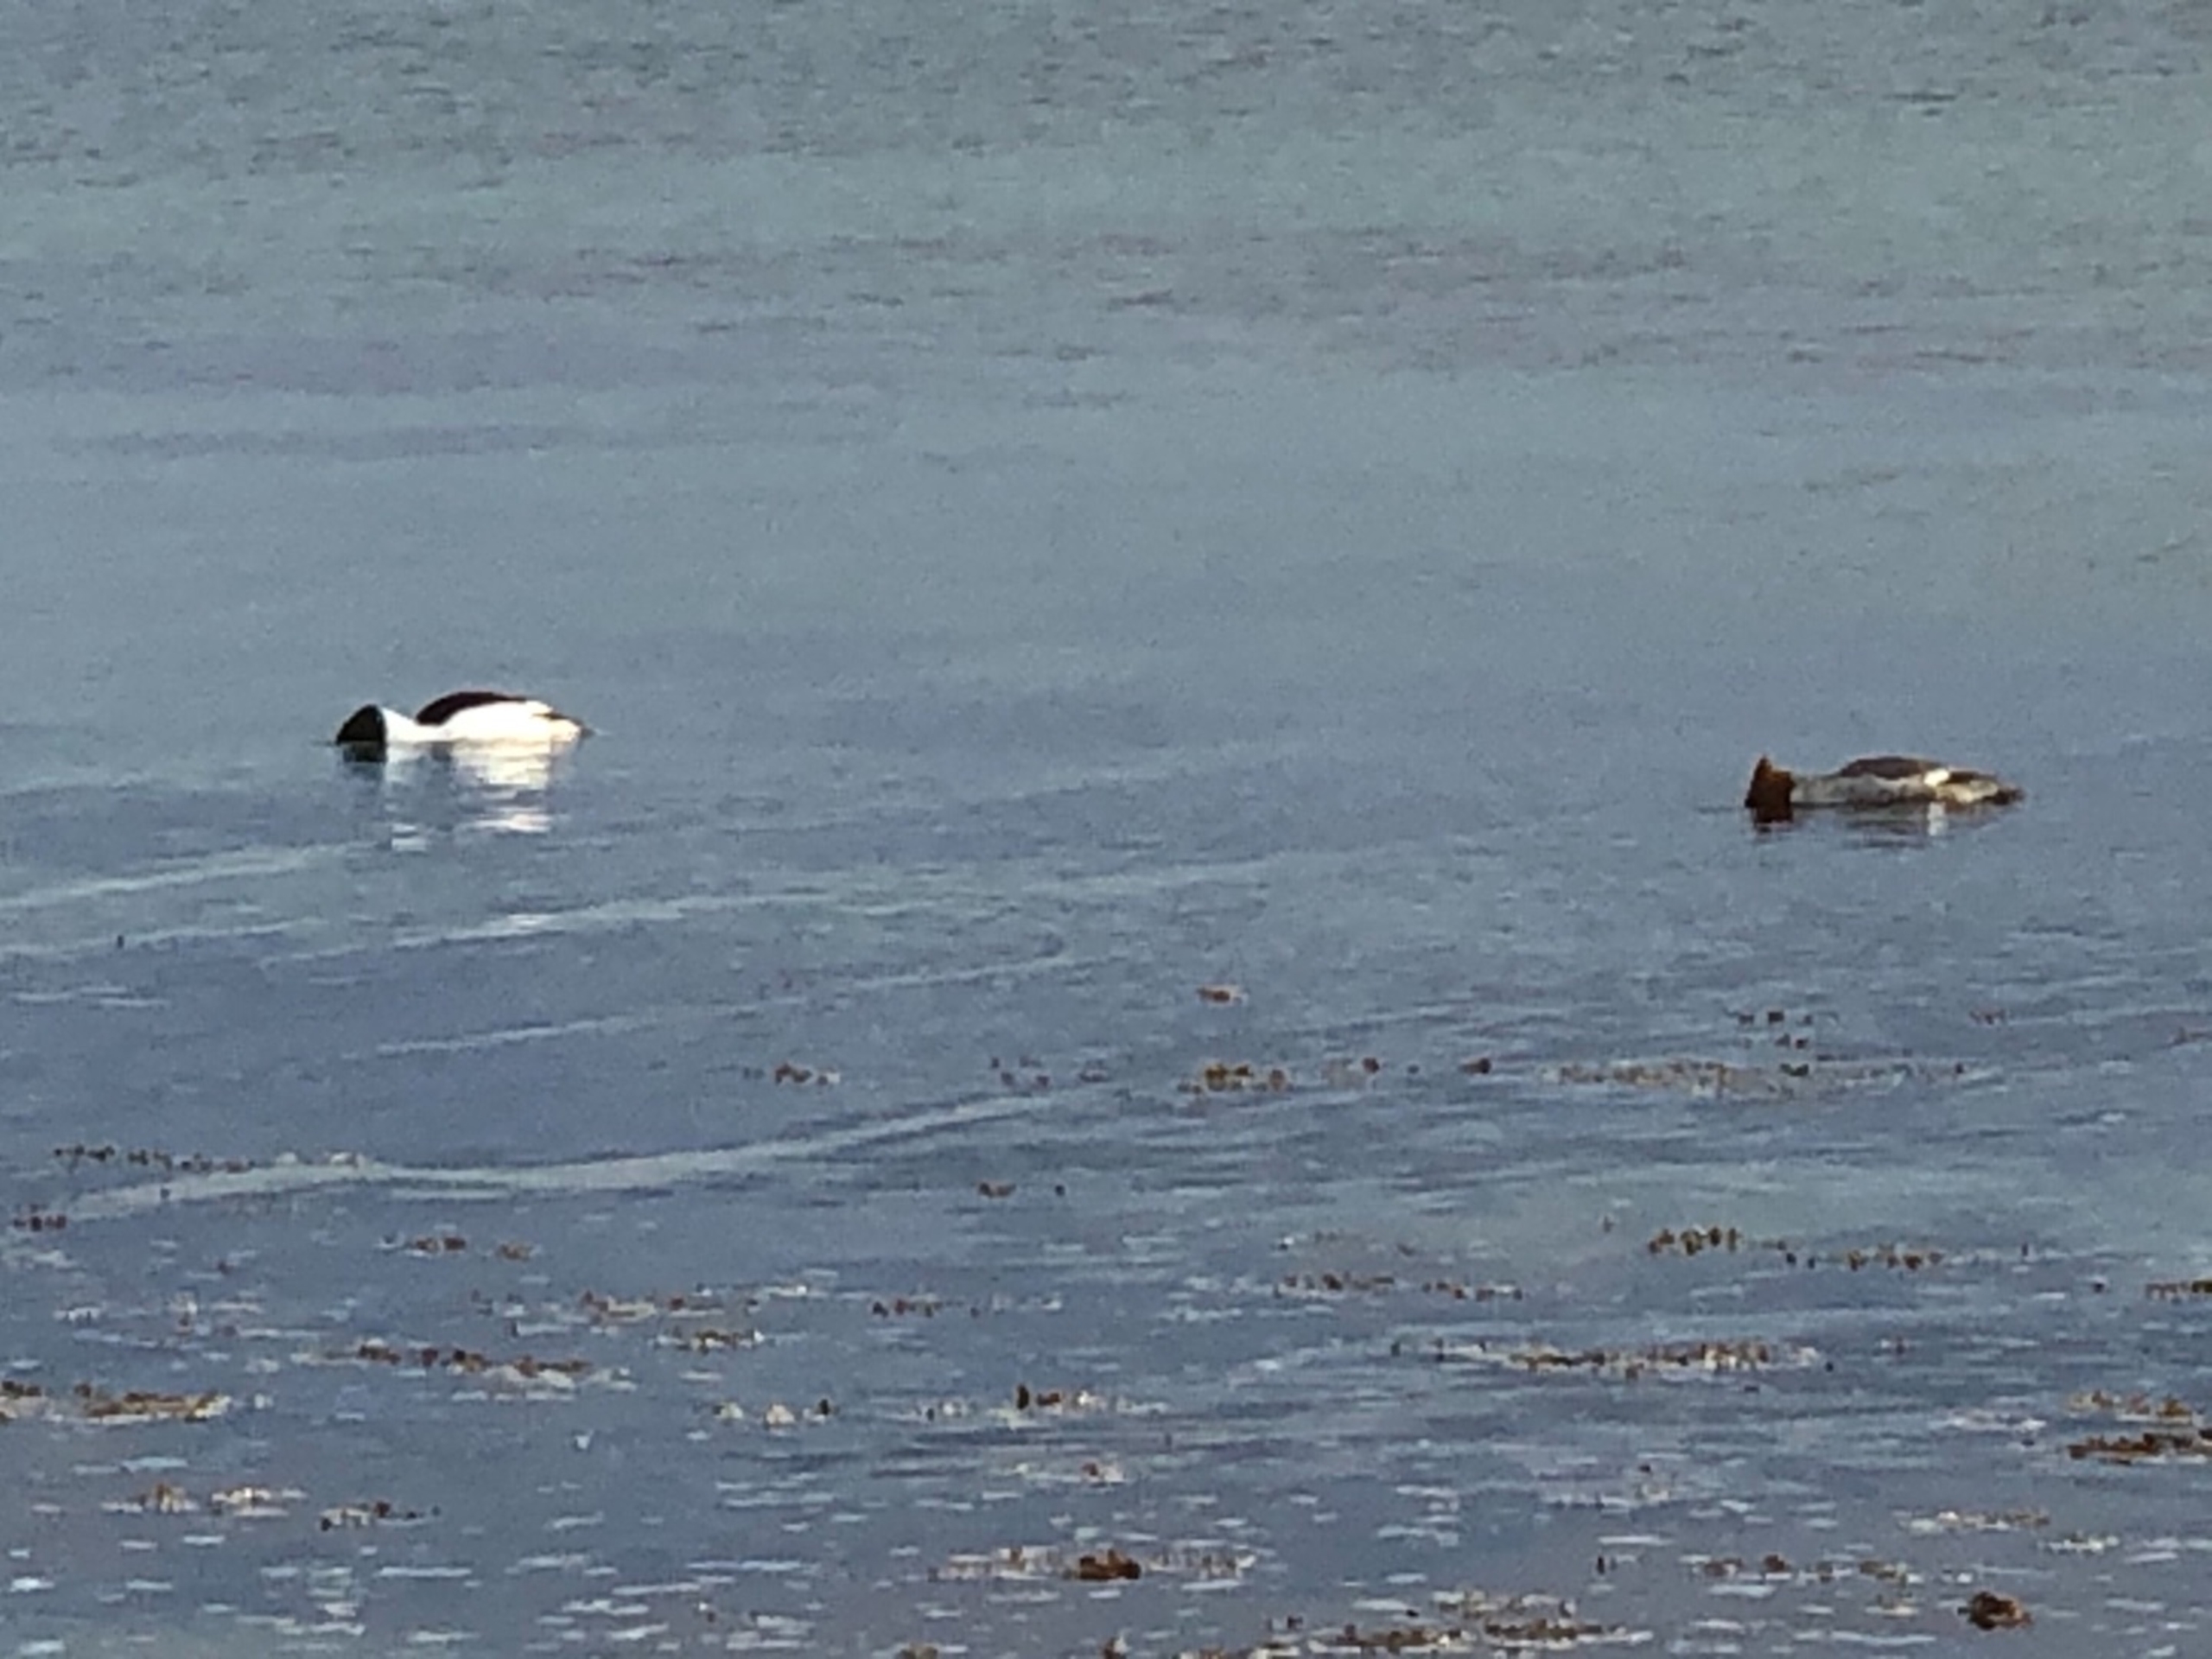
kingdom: Animalia
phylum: Chordata
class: Aves
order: Anseriformes
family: Anatidae
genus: Mergus
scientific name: Mergus merganser
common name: Stor skallesluger
